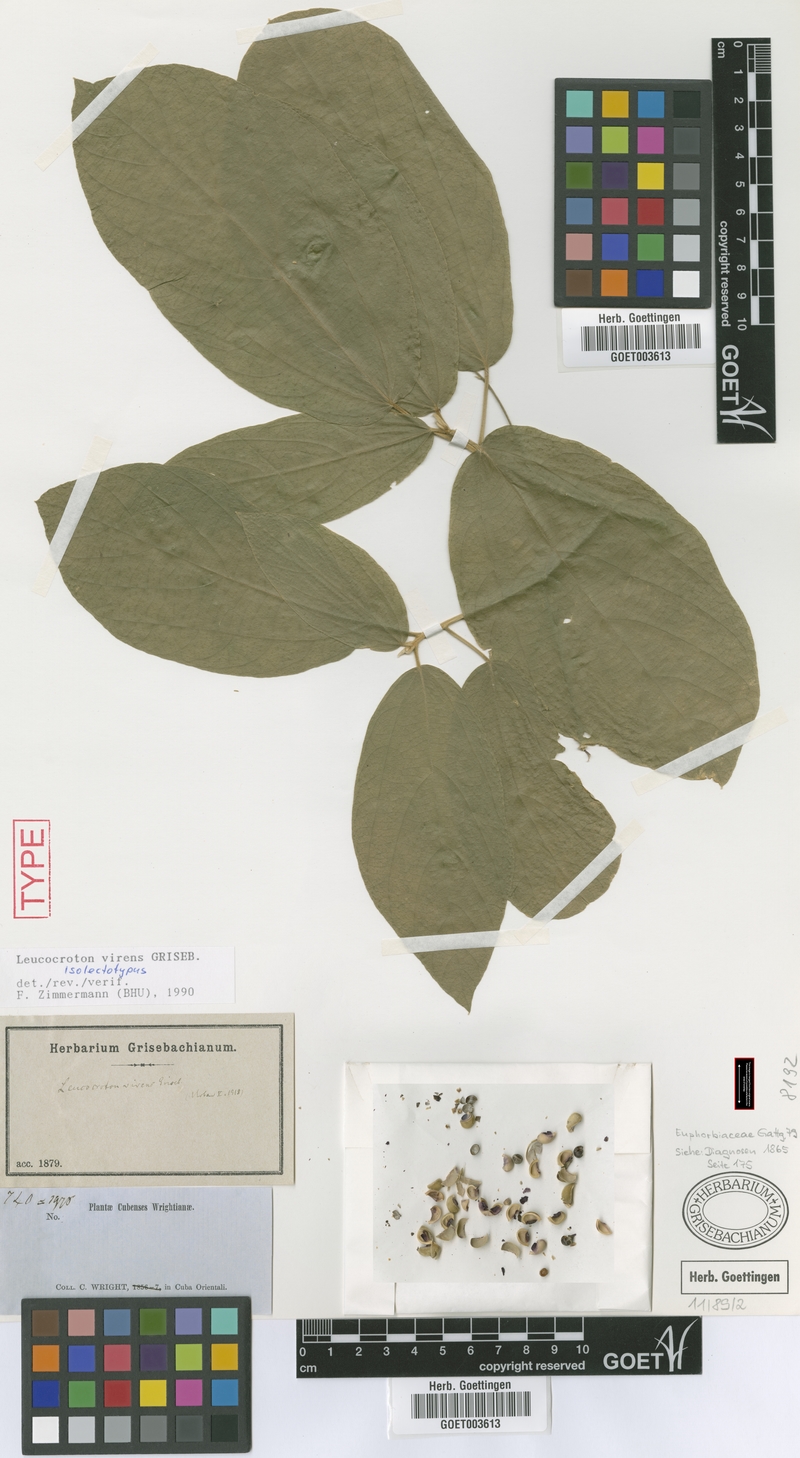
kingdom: Plantae
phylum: Tracheophyta
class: Magnoliopsida
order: Malpighiales
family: Euphorbiaceae
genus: Leucocroton
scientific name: Leucocroton virens
